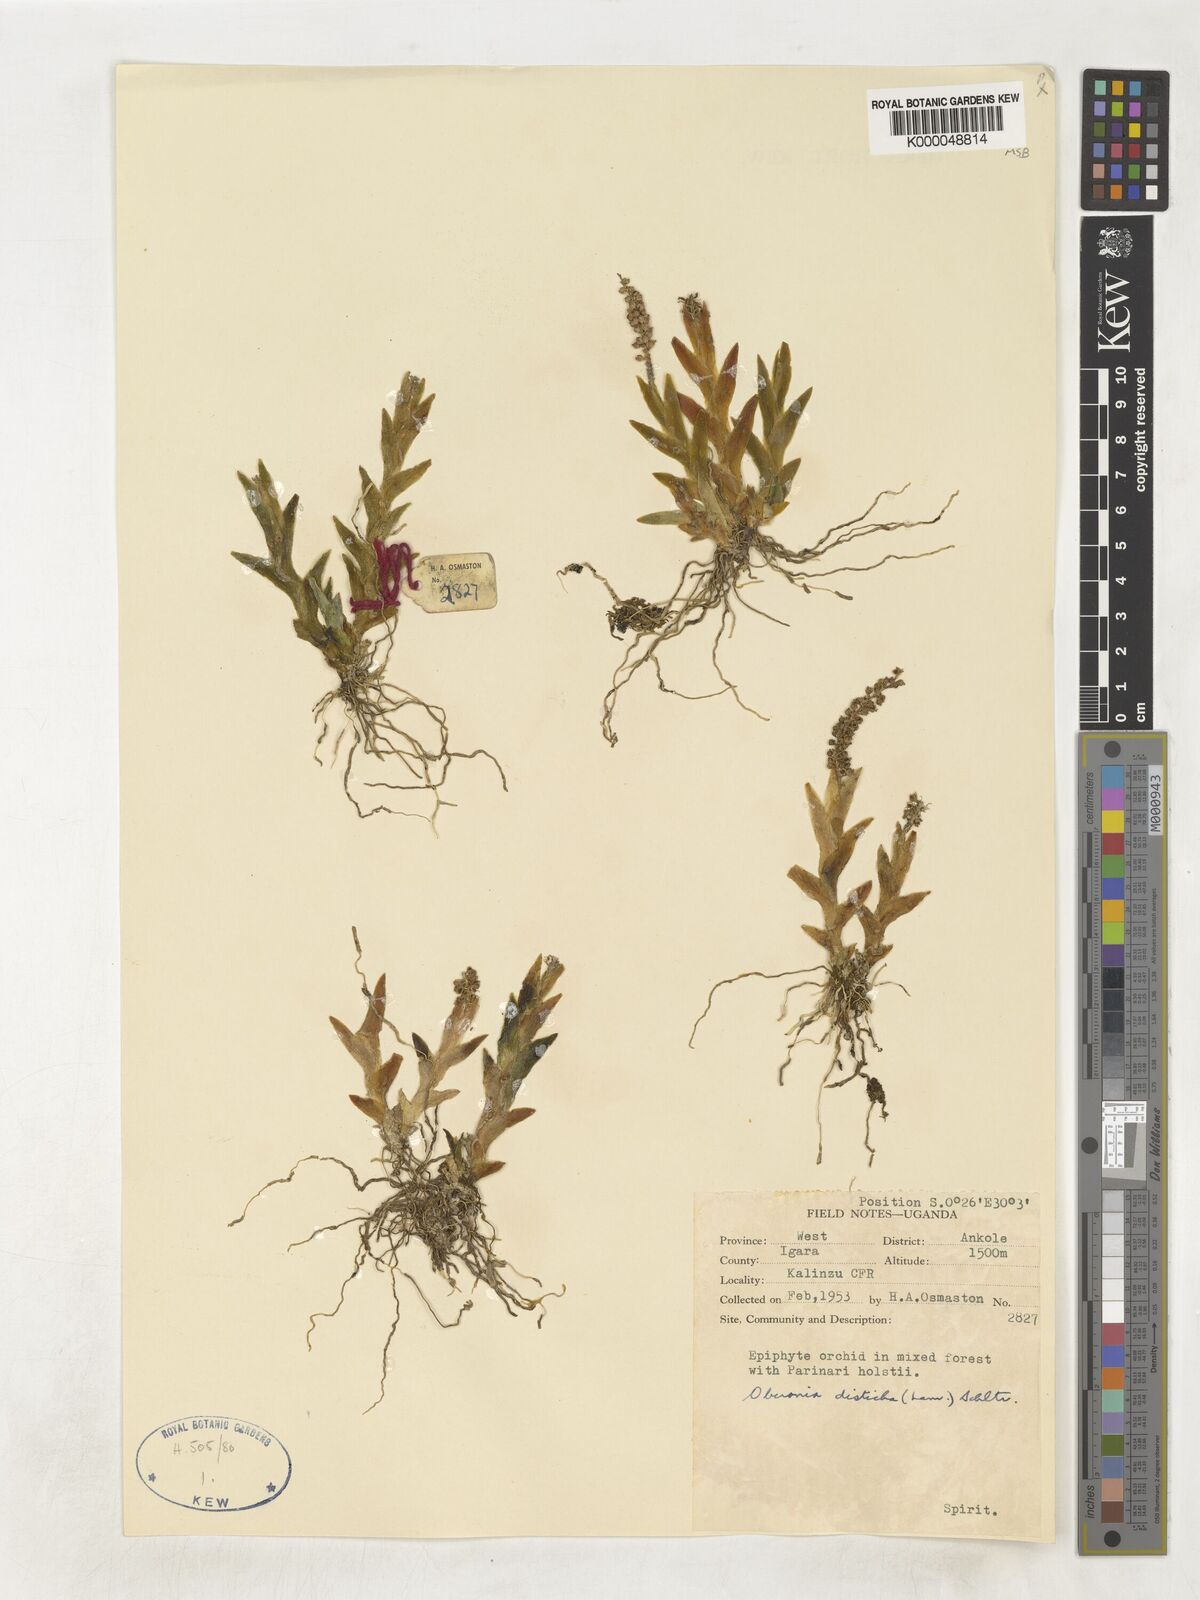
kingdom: Plantae
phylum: Tracheophyta
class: Liliopsida
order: Asparagales
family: Orchidaceae
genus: Oberonia
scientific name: Oberonia disticha
